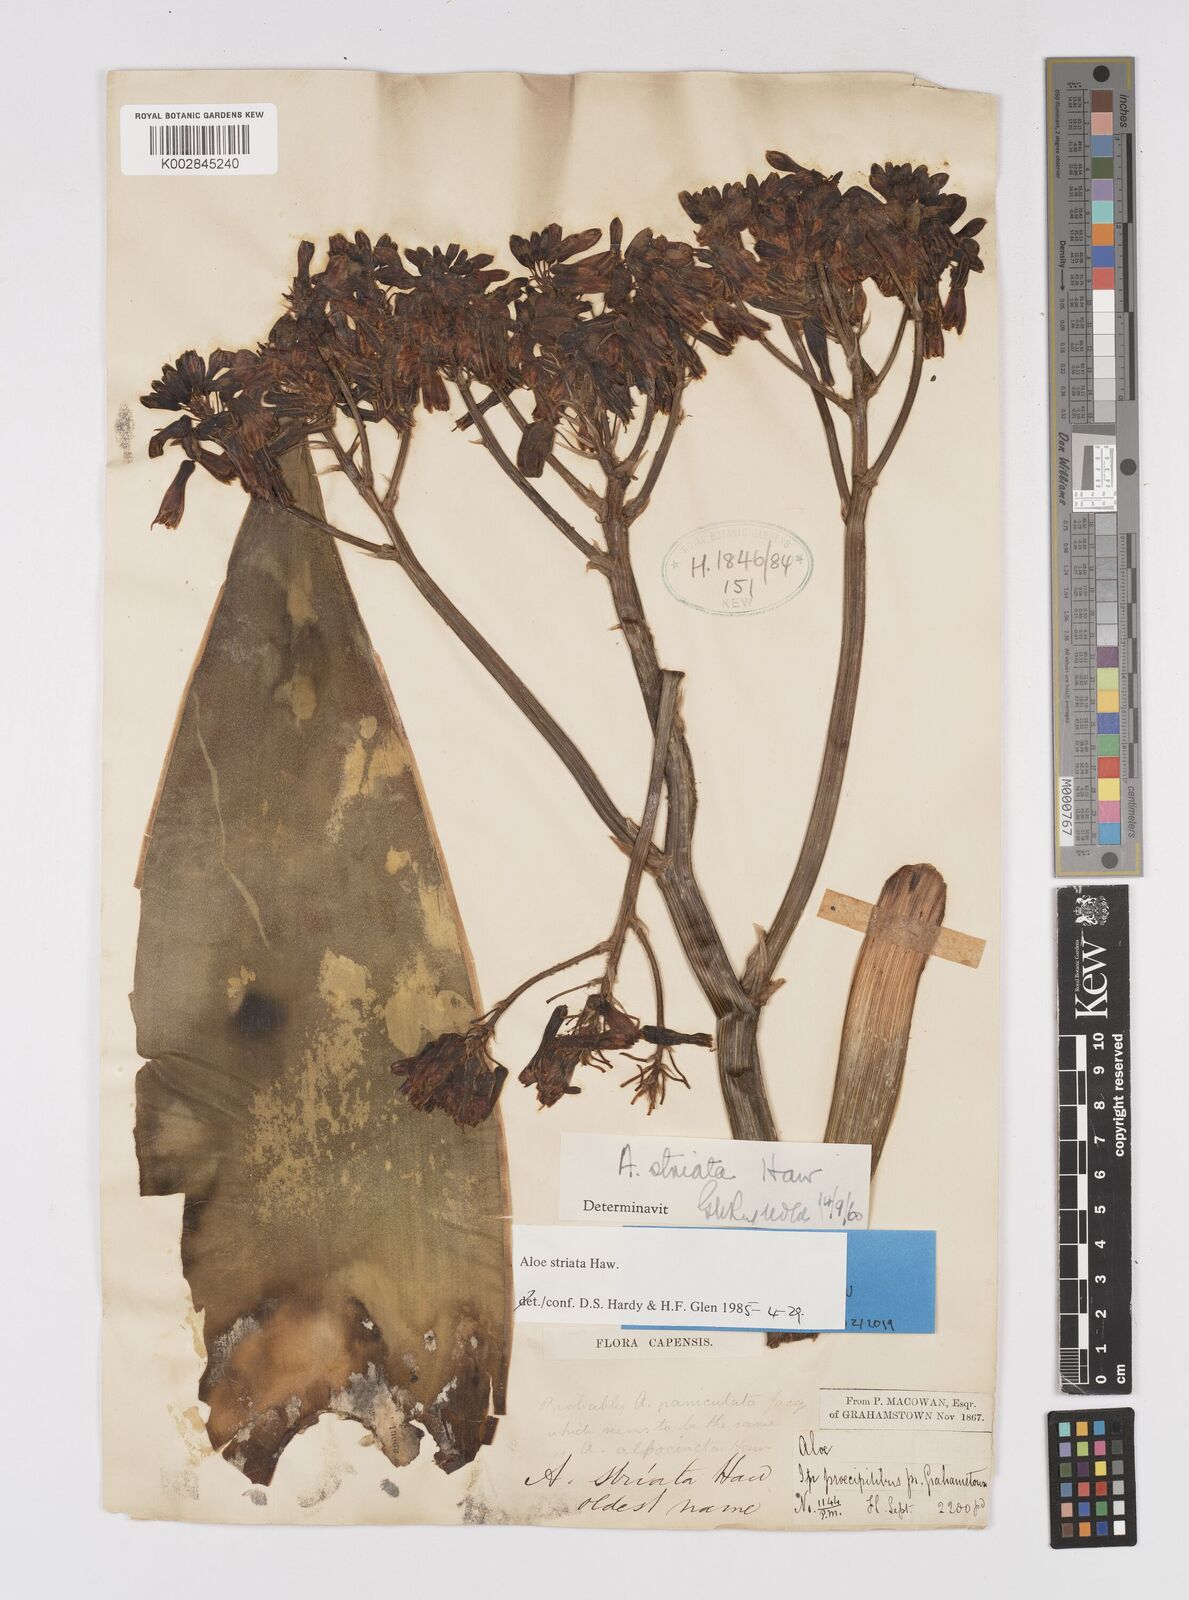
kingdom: Plantae
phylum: Tracheophyta
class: Liliopsida
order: Asparagales
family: Asphodelaceae
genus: Aloe
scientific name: Aloe striata
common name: Coral aloe
